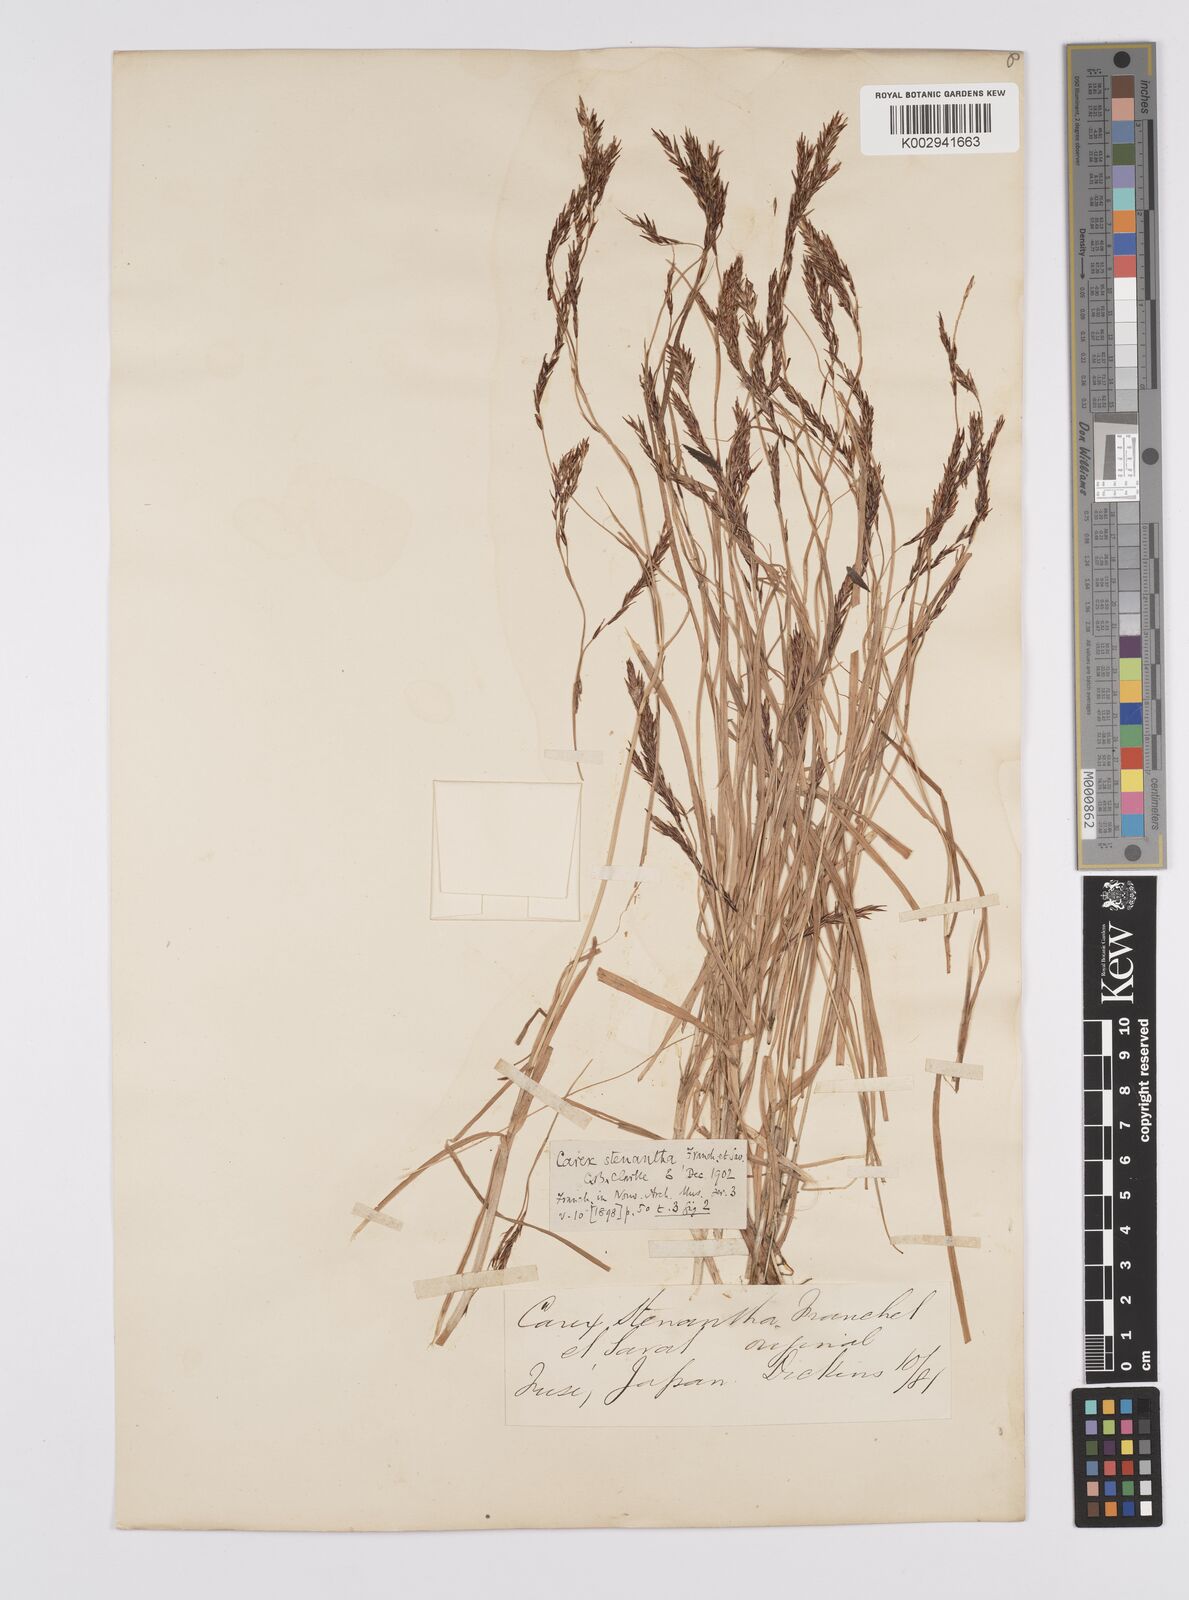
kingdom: Plantae
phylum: Tracheophyta
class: Liliopsida
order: Poales
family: Cyperaceae
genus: Carex
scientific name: Carex stenantha
